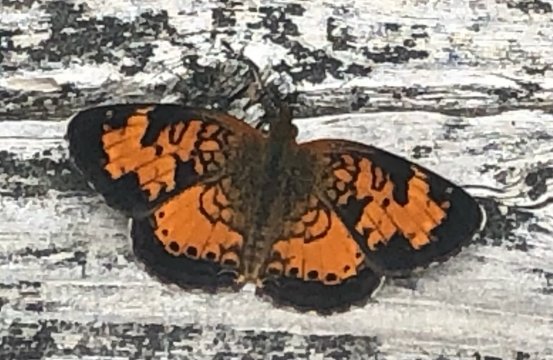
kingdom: Animalia
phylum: Arthropoda
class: Insecta
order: Lepidoptera
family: Nymphalidae
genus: Phyciodes
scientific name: Phyciodes tharos
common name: Northern Crescent
